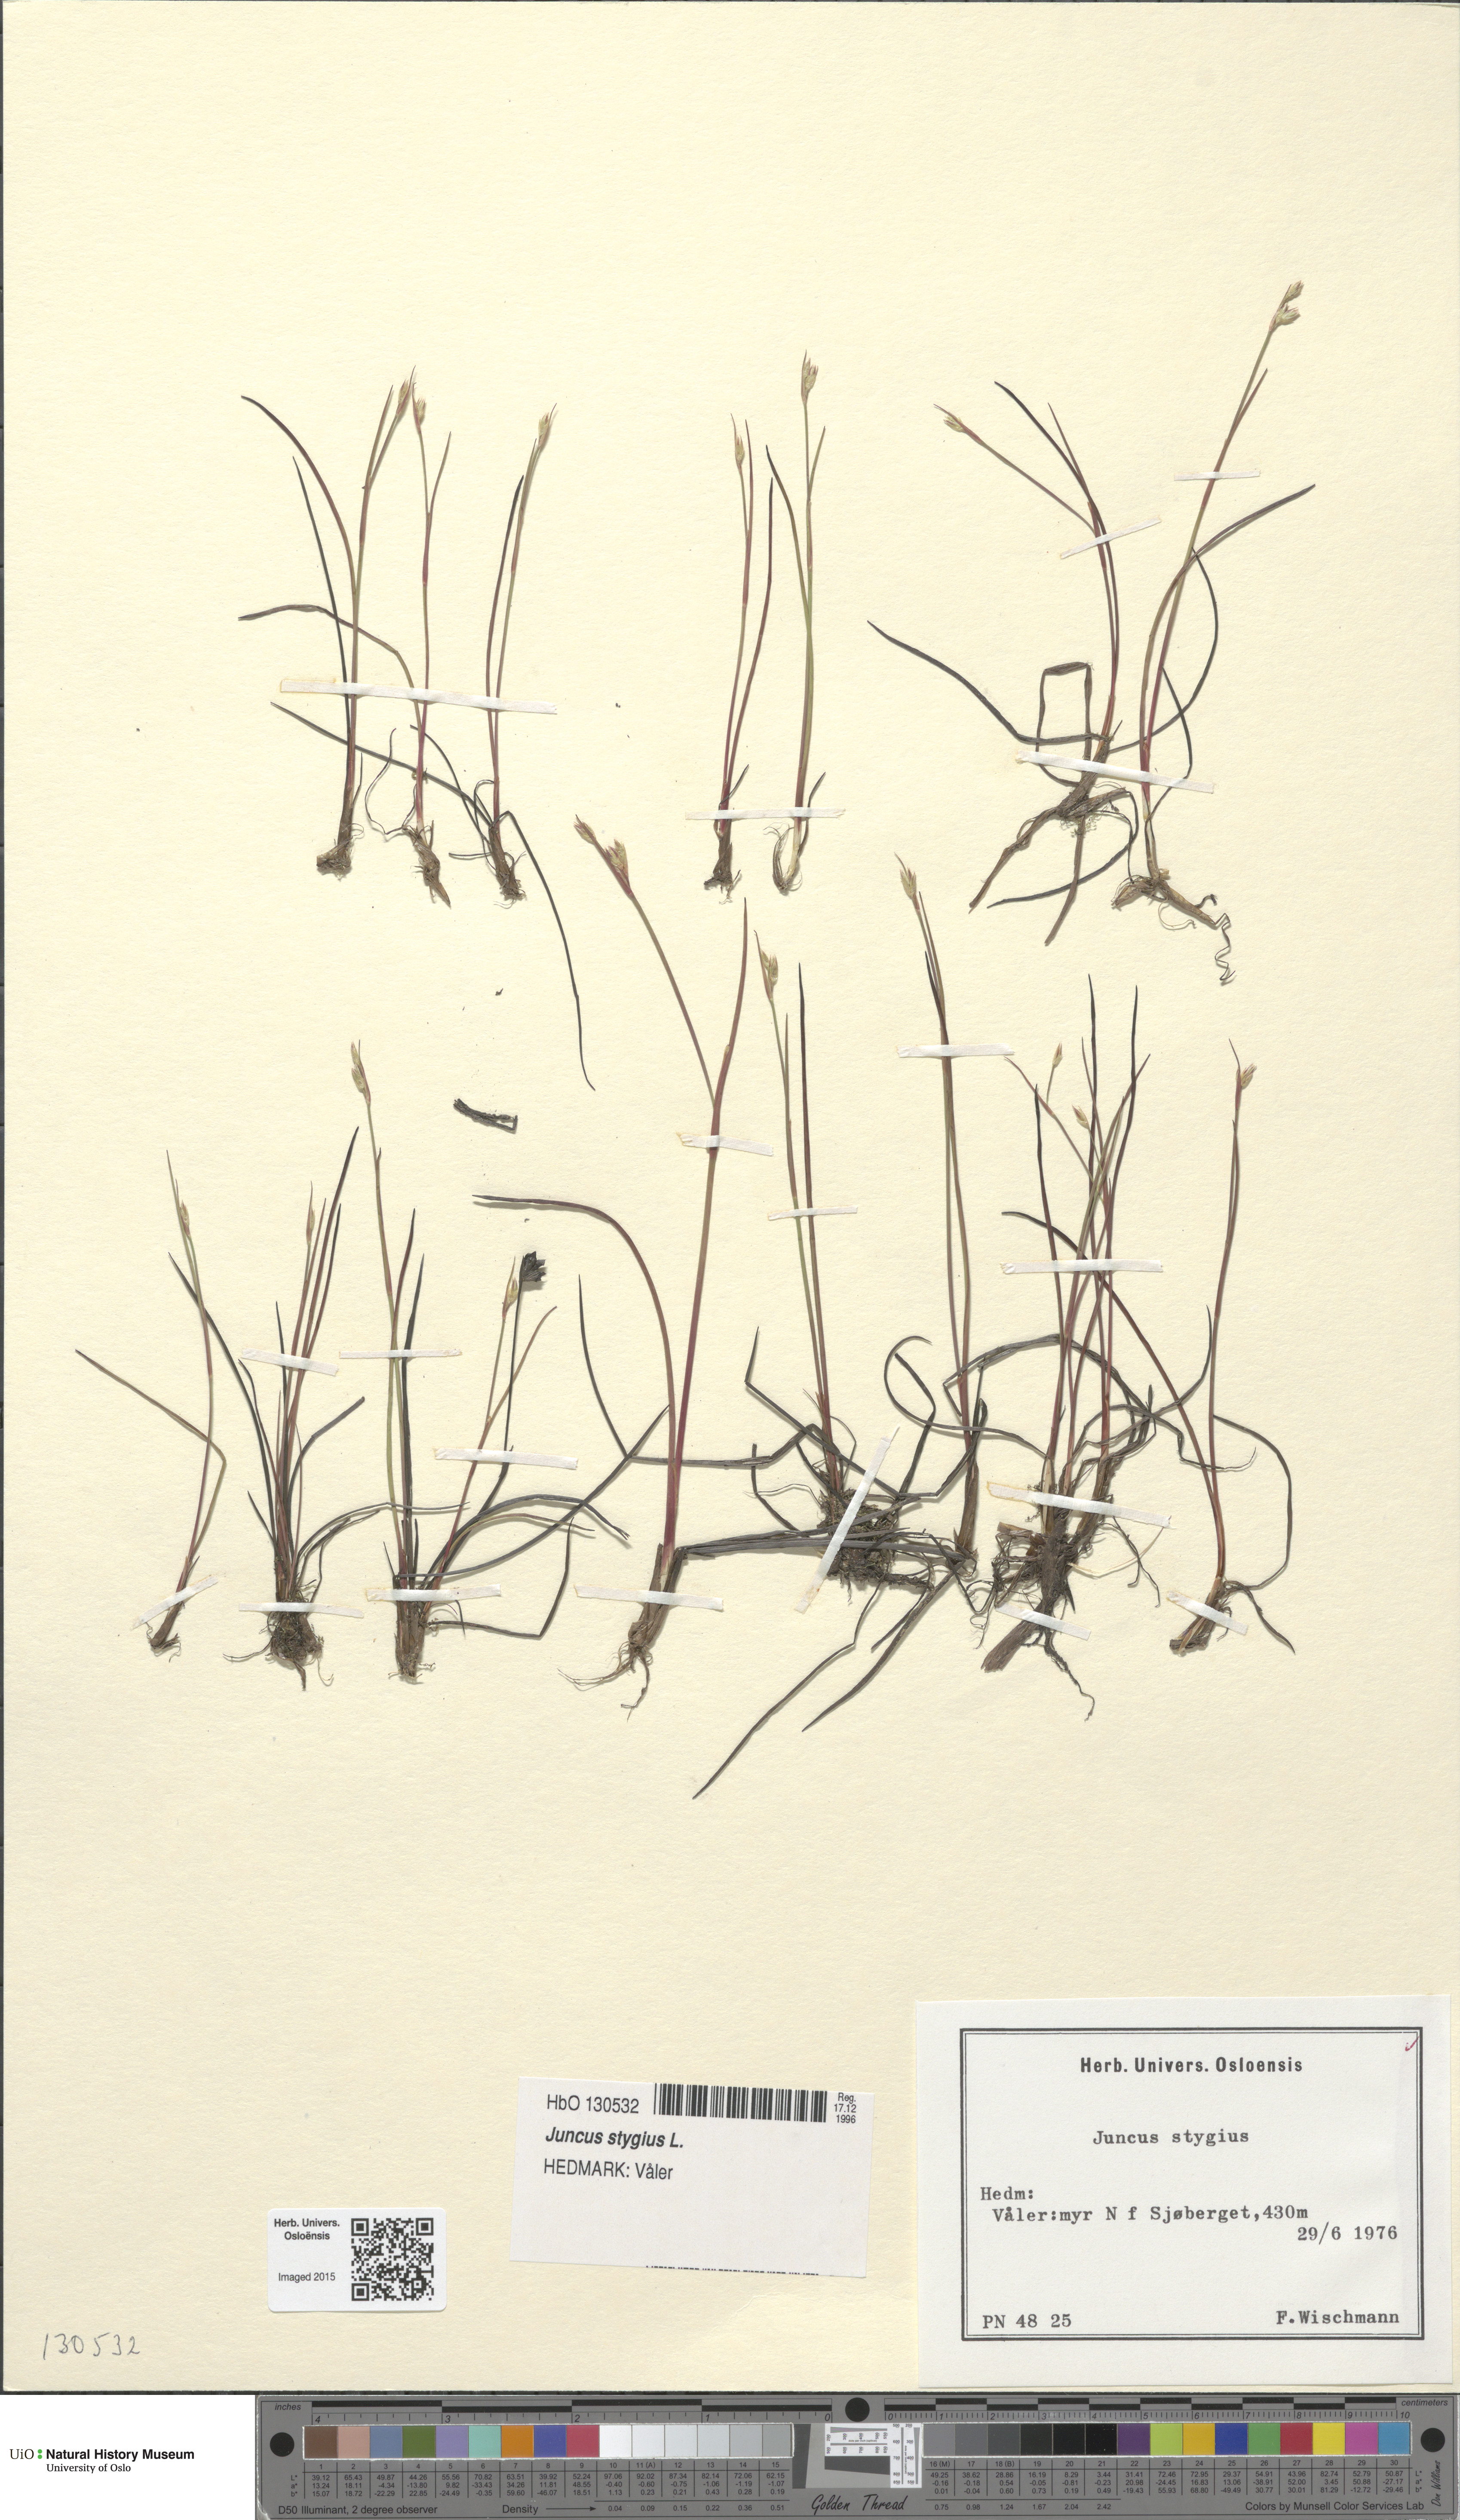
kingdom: Plantae
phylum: Tracheophyta
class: Liliopsida
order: Poales
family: Juncaceae
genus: Juncus
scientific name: Juncus stygius
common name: Bog rush
